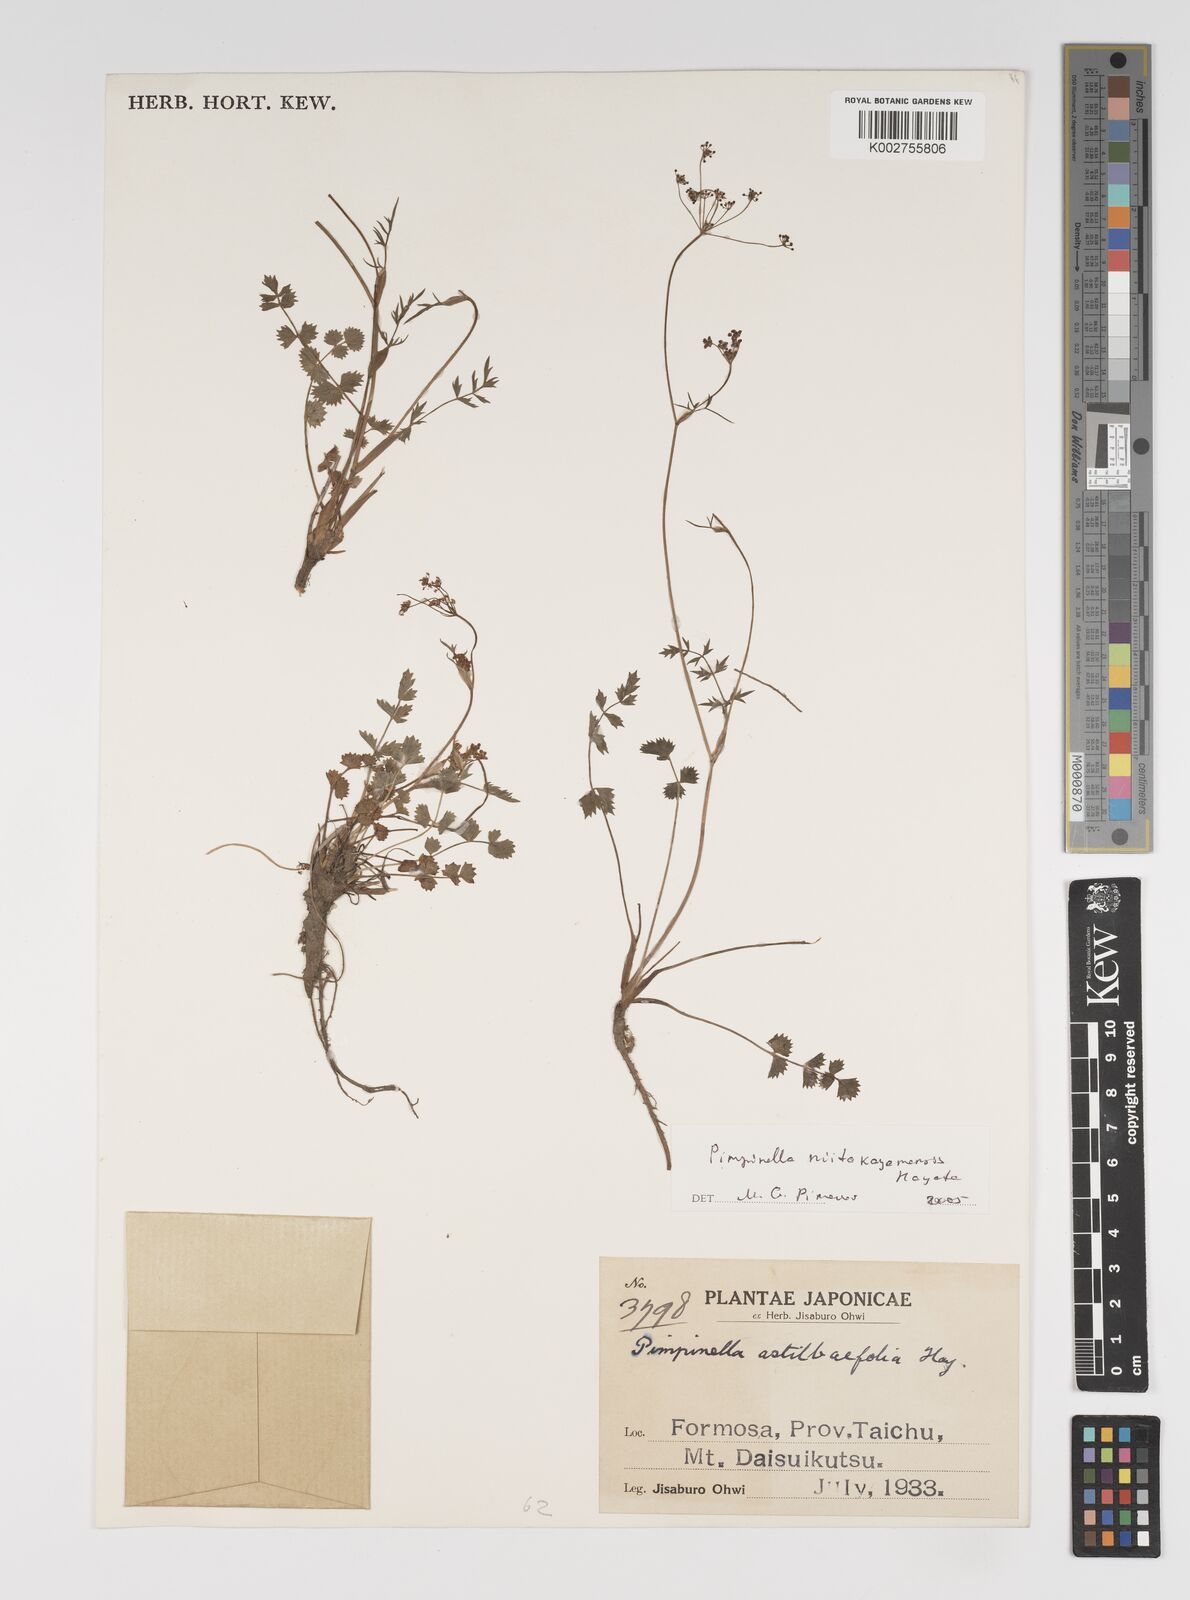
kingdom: Plantae
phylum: Tracheophyta
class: Magnoliopsida
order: Apiales
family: Apiaceae
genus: Pimpinella
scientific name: Pimpinella niitakayamensis
